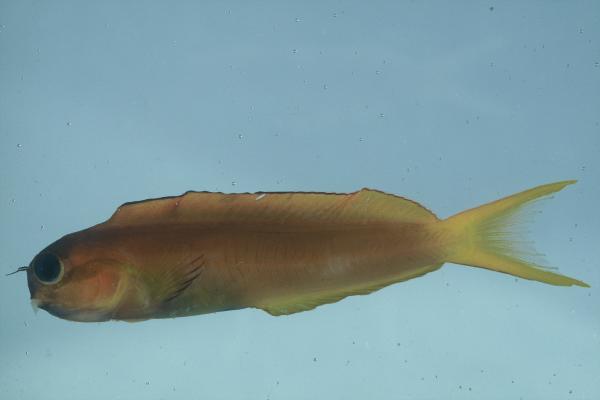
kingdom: Animalia
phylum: Chordata
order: Perciformes
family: Blenniidae
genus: Ecsenius
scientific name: Ecsenius midas
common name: Golden blenny
